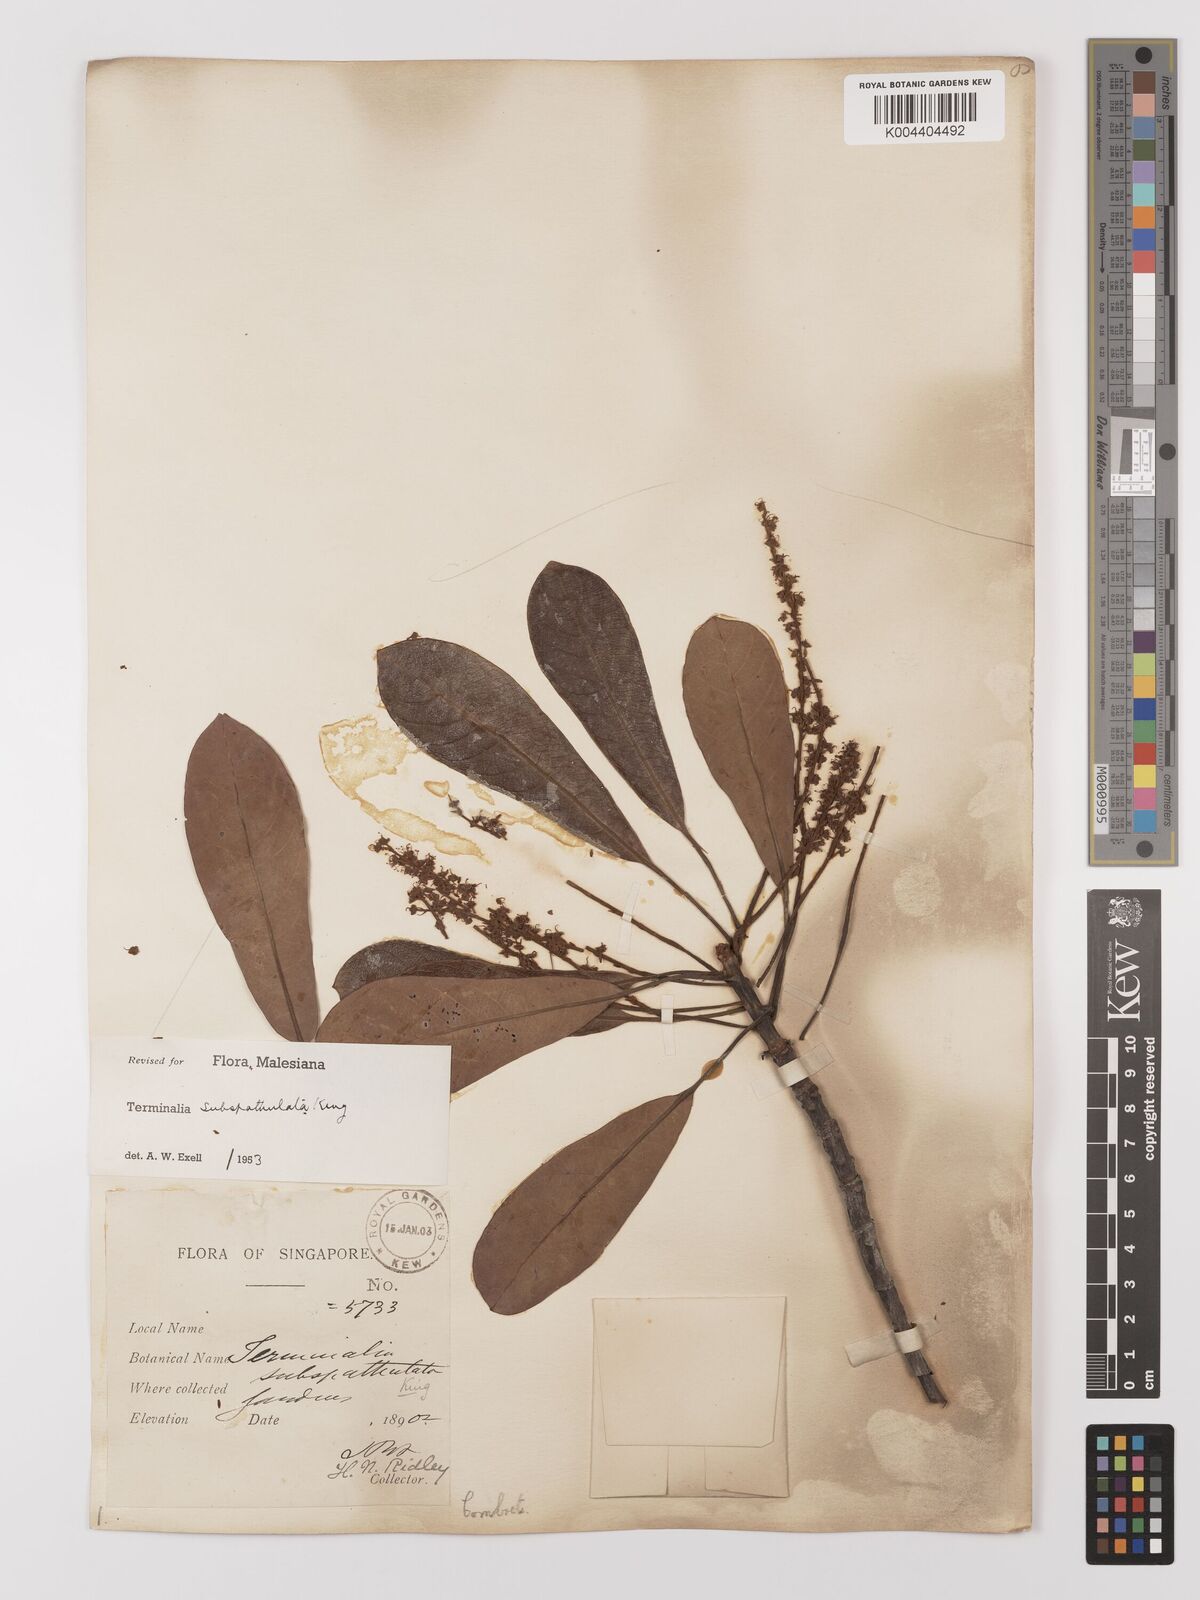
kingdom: Plantae
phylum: Tracheophyta
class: Magnoliopsida
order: Myrtales
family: Combretaceae
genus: Terminalia
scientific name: Terminalia subspathulata
